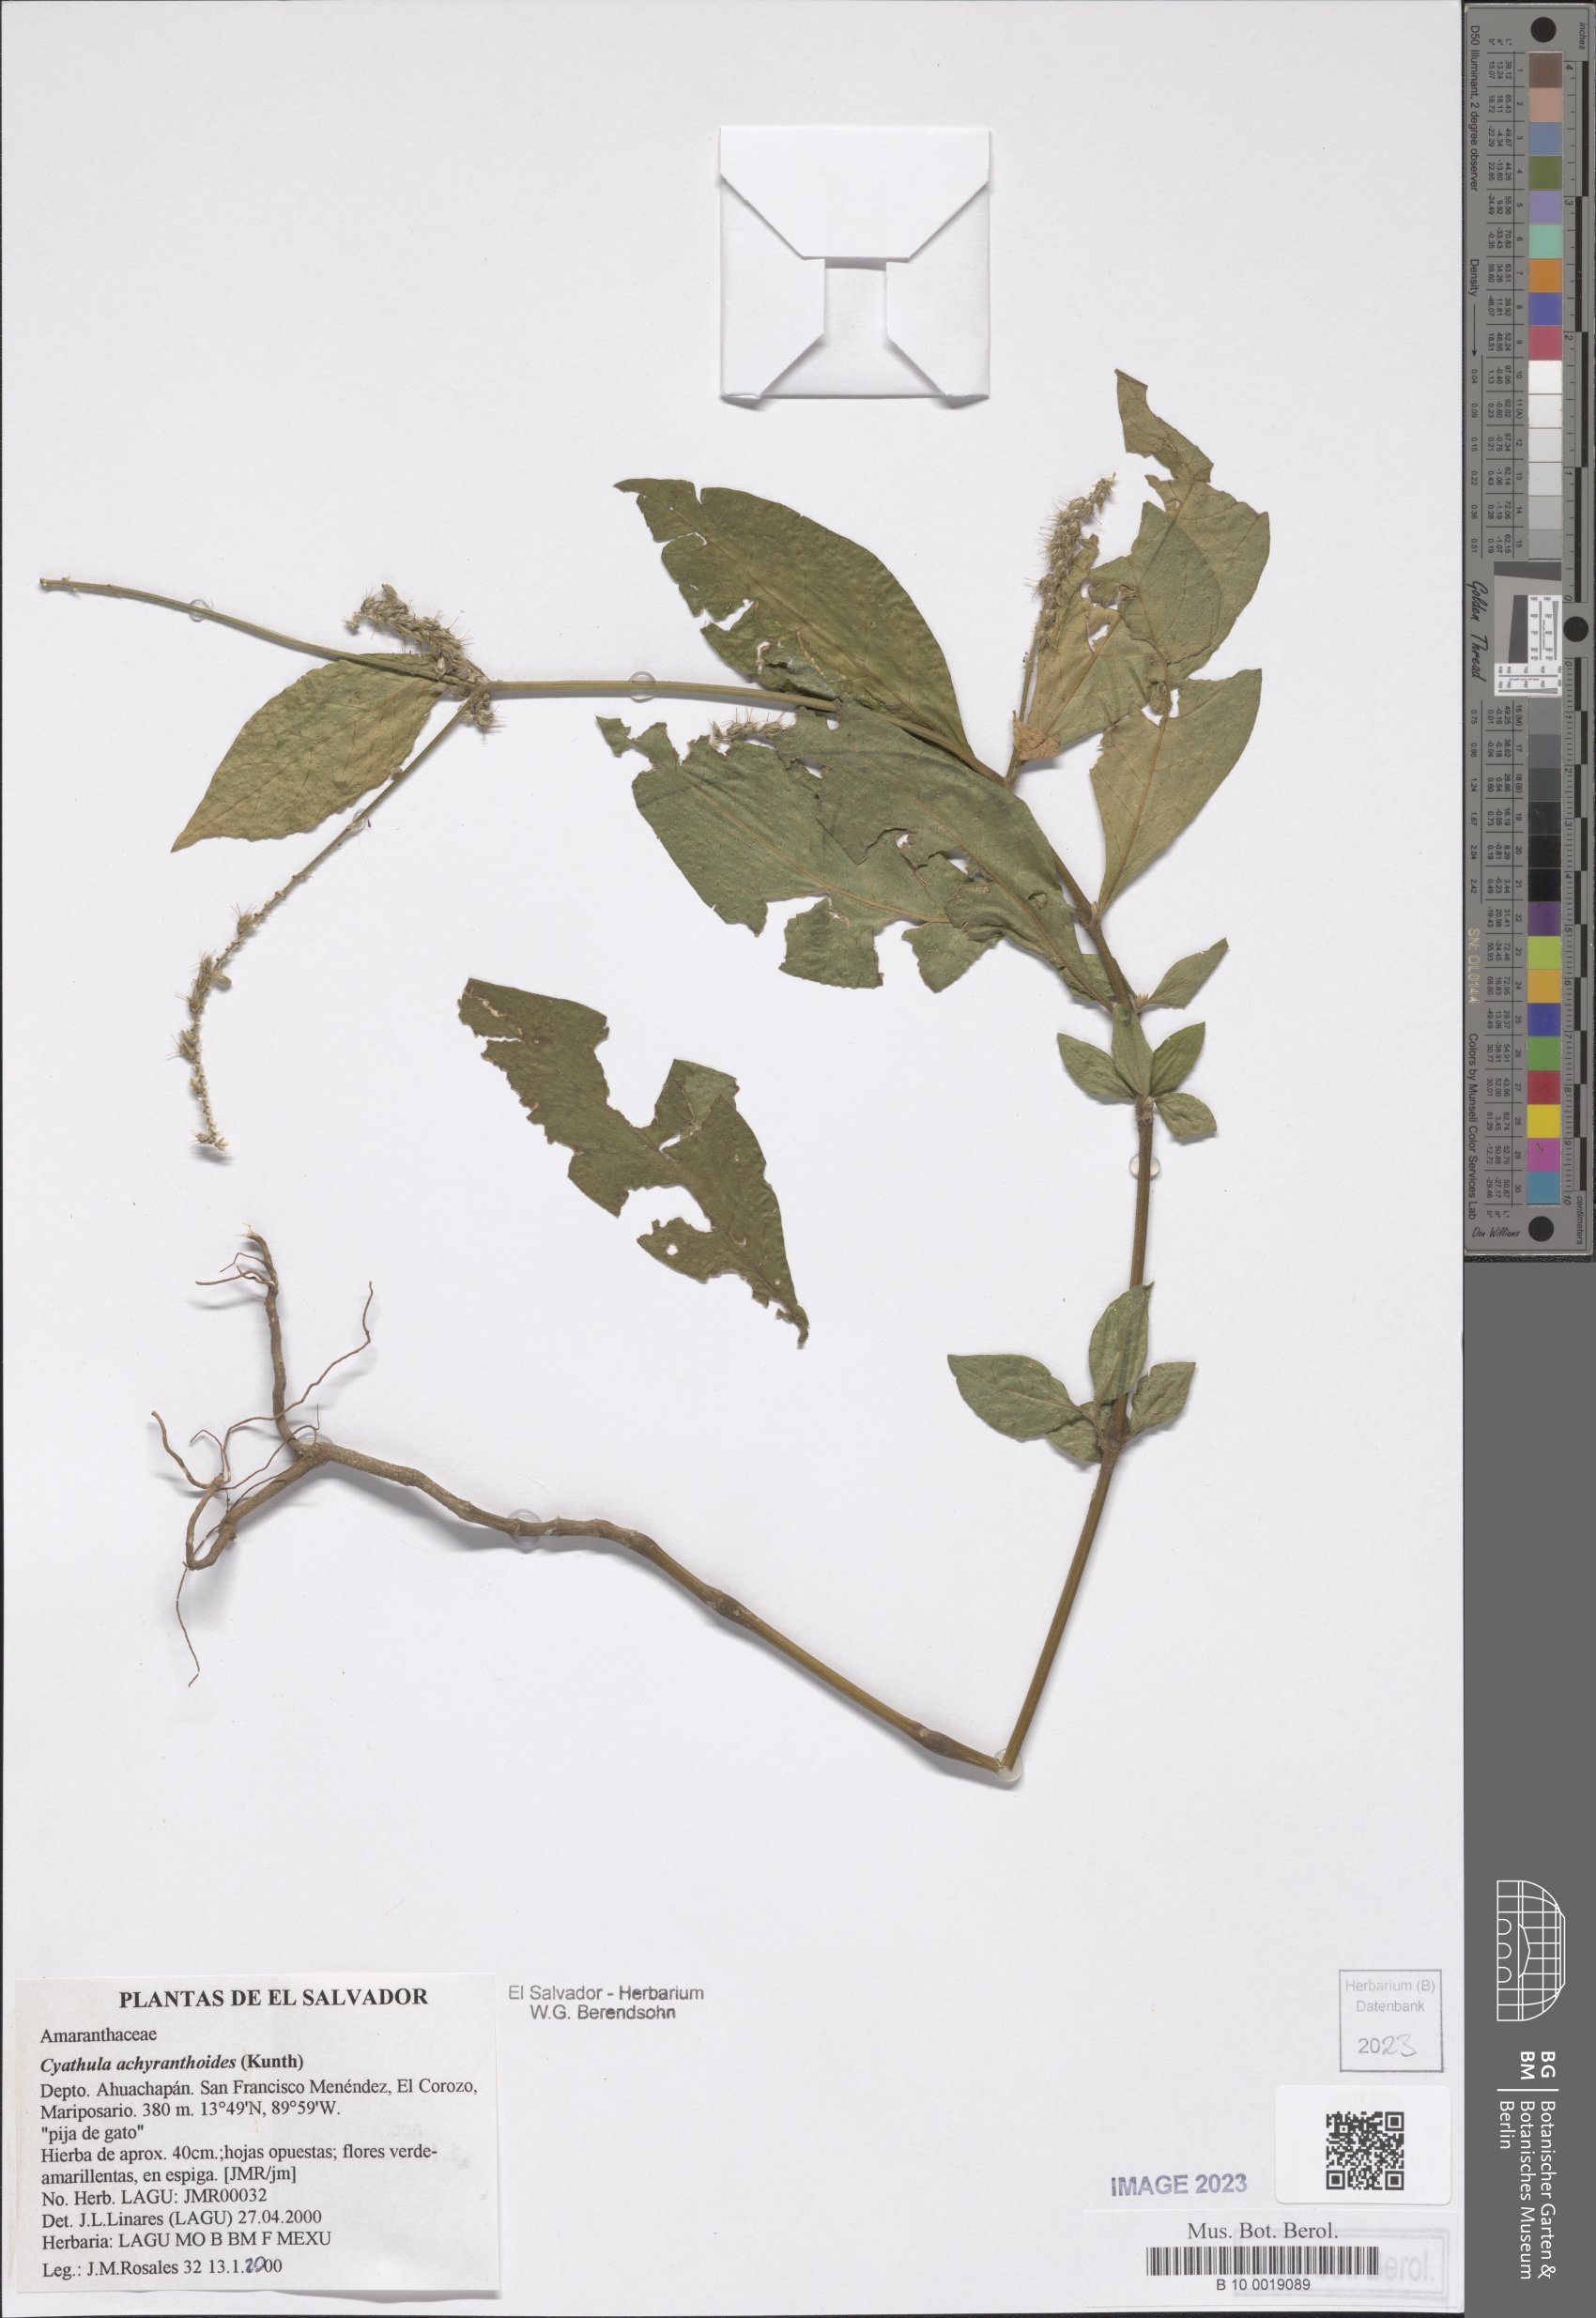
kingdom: Plantae
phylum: Tracheophyta
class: Magnoliopsida
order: Caryophyllales
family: Amaranthaceae
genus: Cyathula
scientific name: Cyathula achyranthoides
